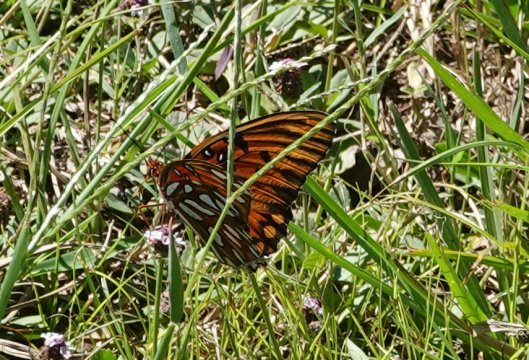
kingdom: Animalia
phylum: Arthropoda
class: Insecta
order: Lepidoptera
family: Nymphalidae
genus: Dione
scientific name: Dione vanillae
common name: Gulf Fritillary
